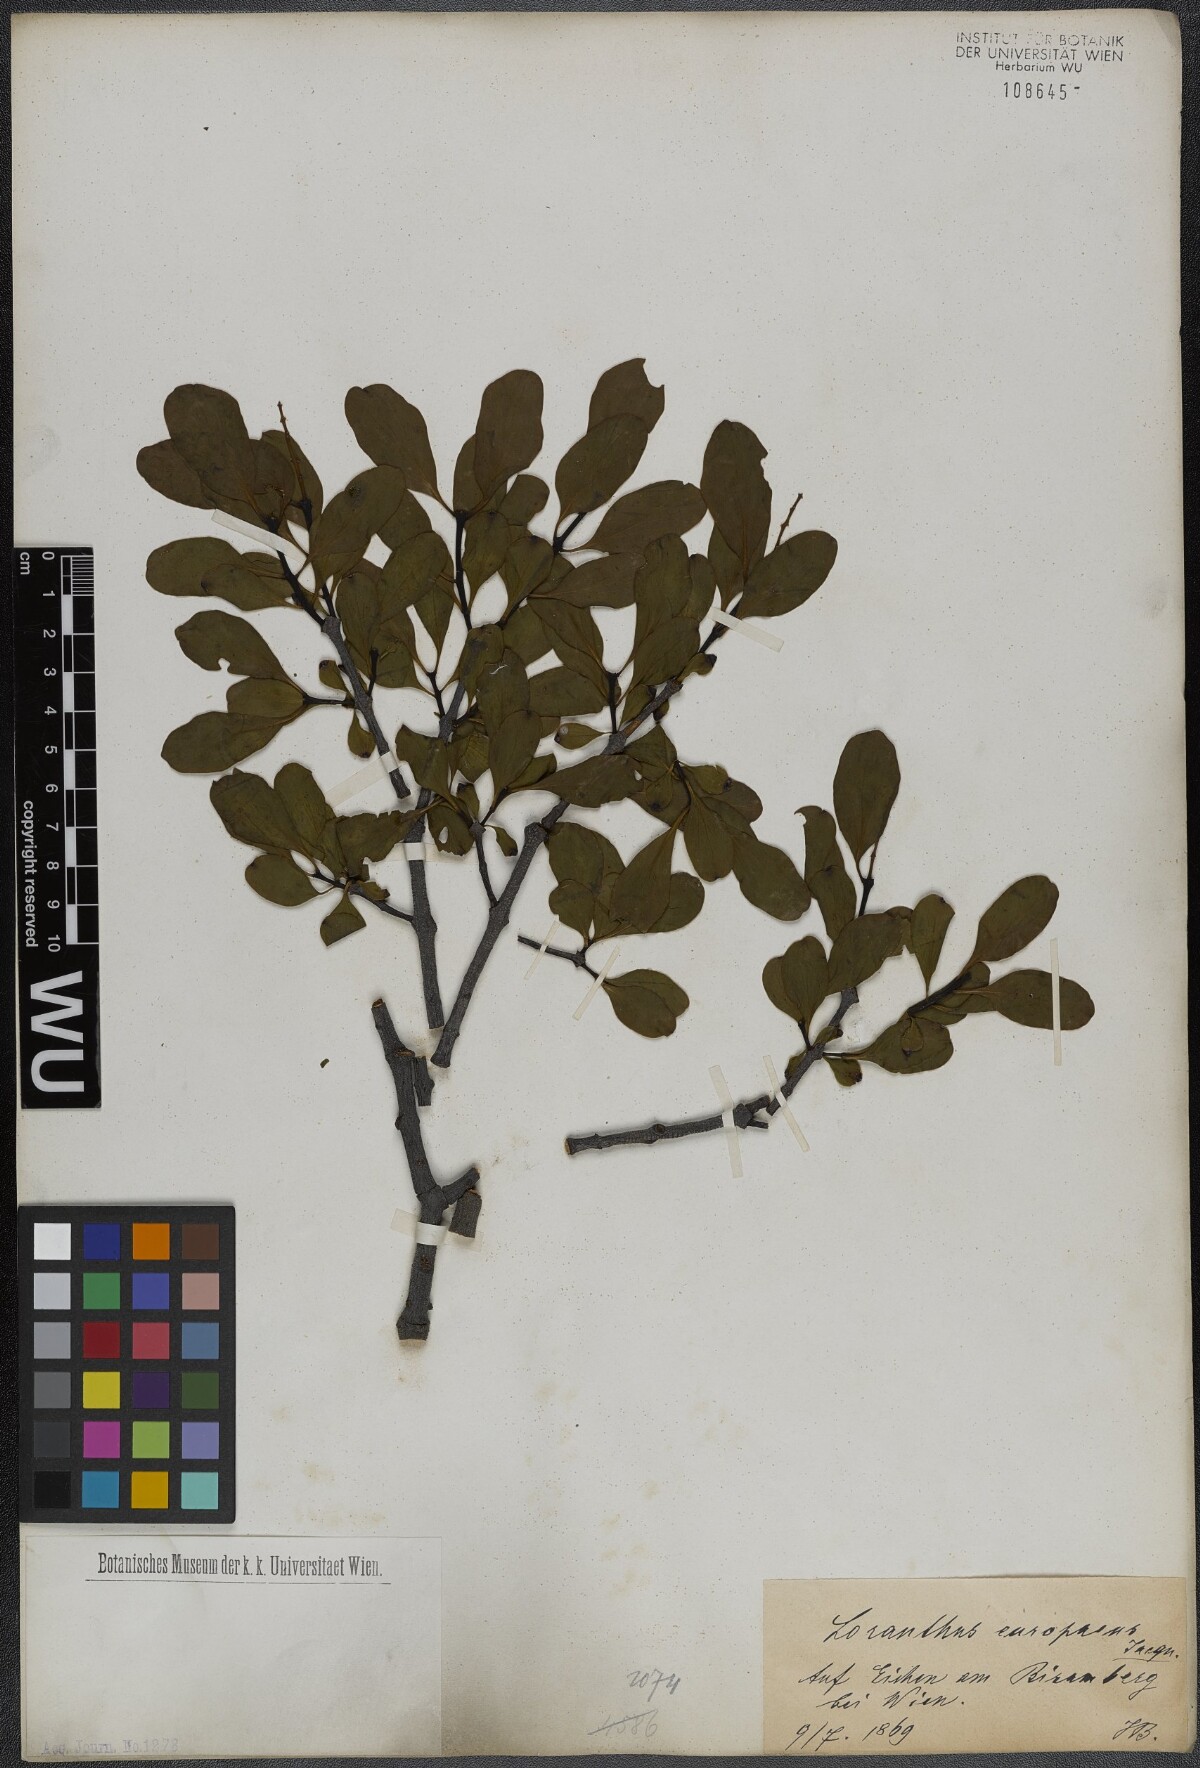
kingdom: Plantae
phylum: Tracheophyta
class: Magnoliopsida
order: Santalales
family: Loranthaceae
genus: Loranthus
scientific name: Loranthus europaeus
